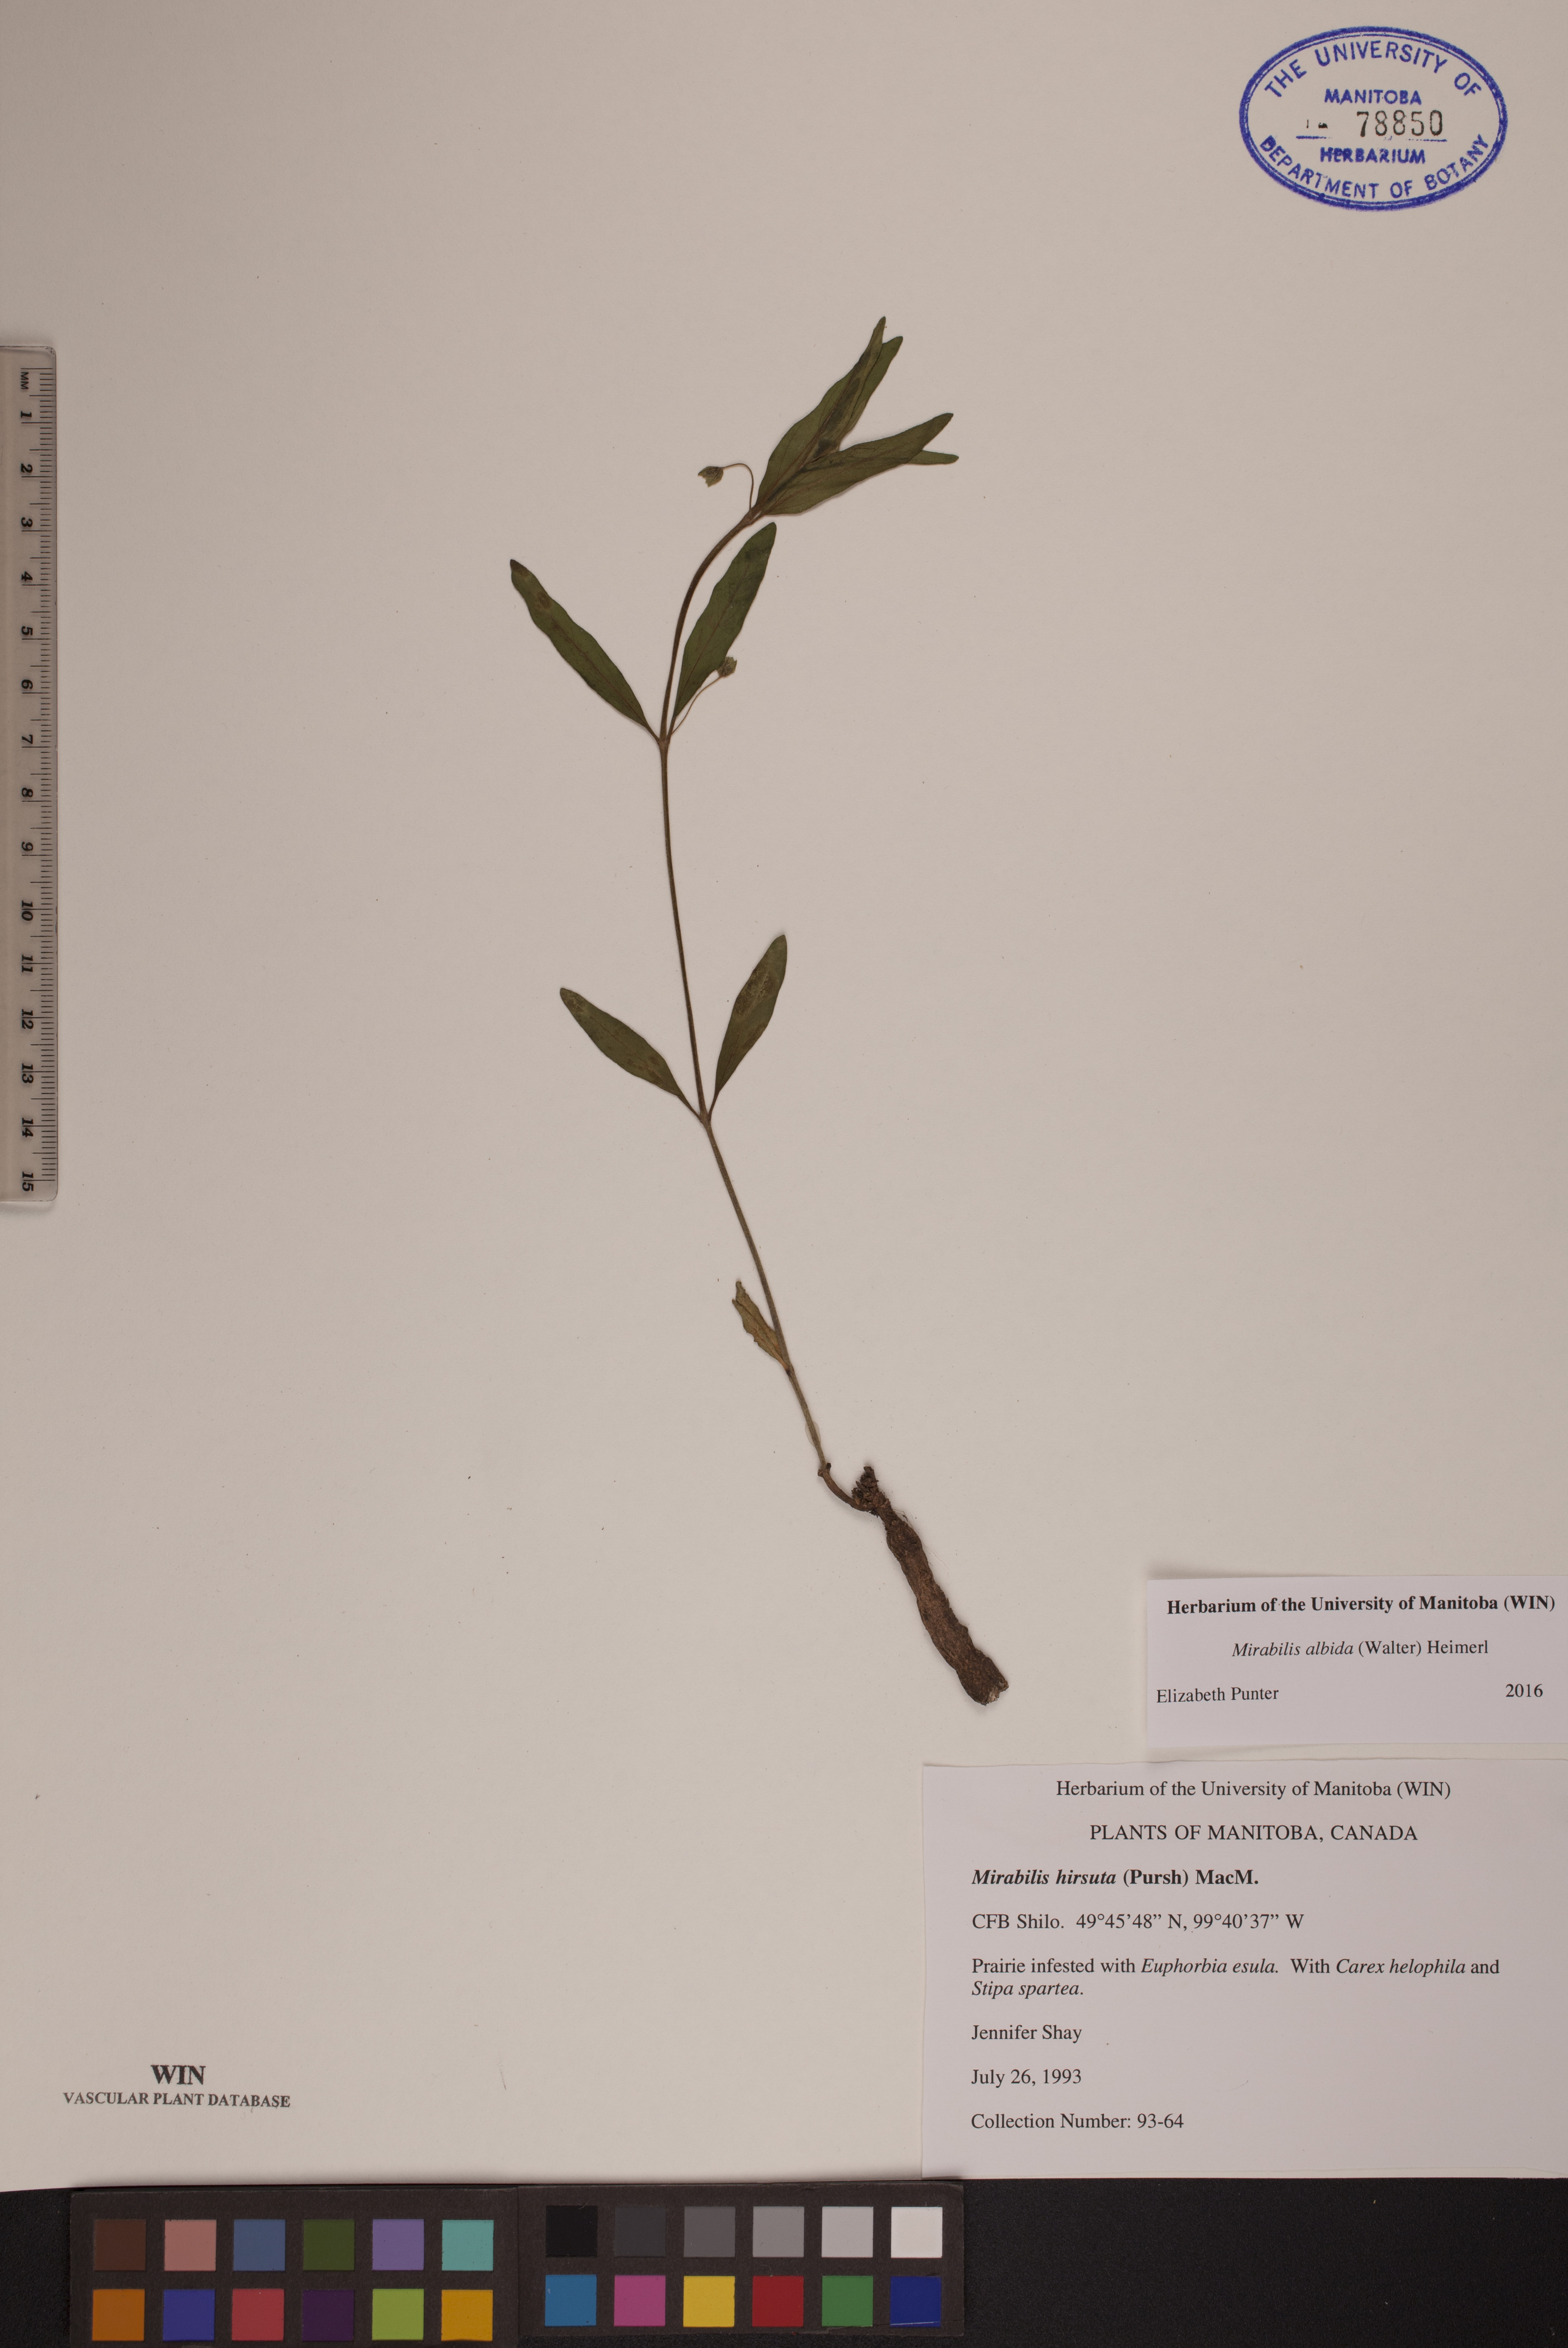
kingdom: Plantae
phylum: Tracheophyta
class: Magnoliopsida
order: Caryophyllales
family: Nyctaginaceae
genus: Mirabilis
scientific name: Mirabilis albida
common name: Hairy four-o'clock
